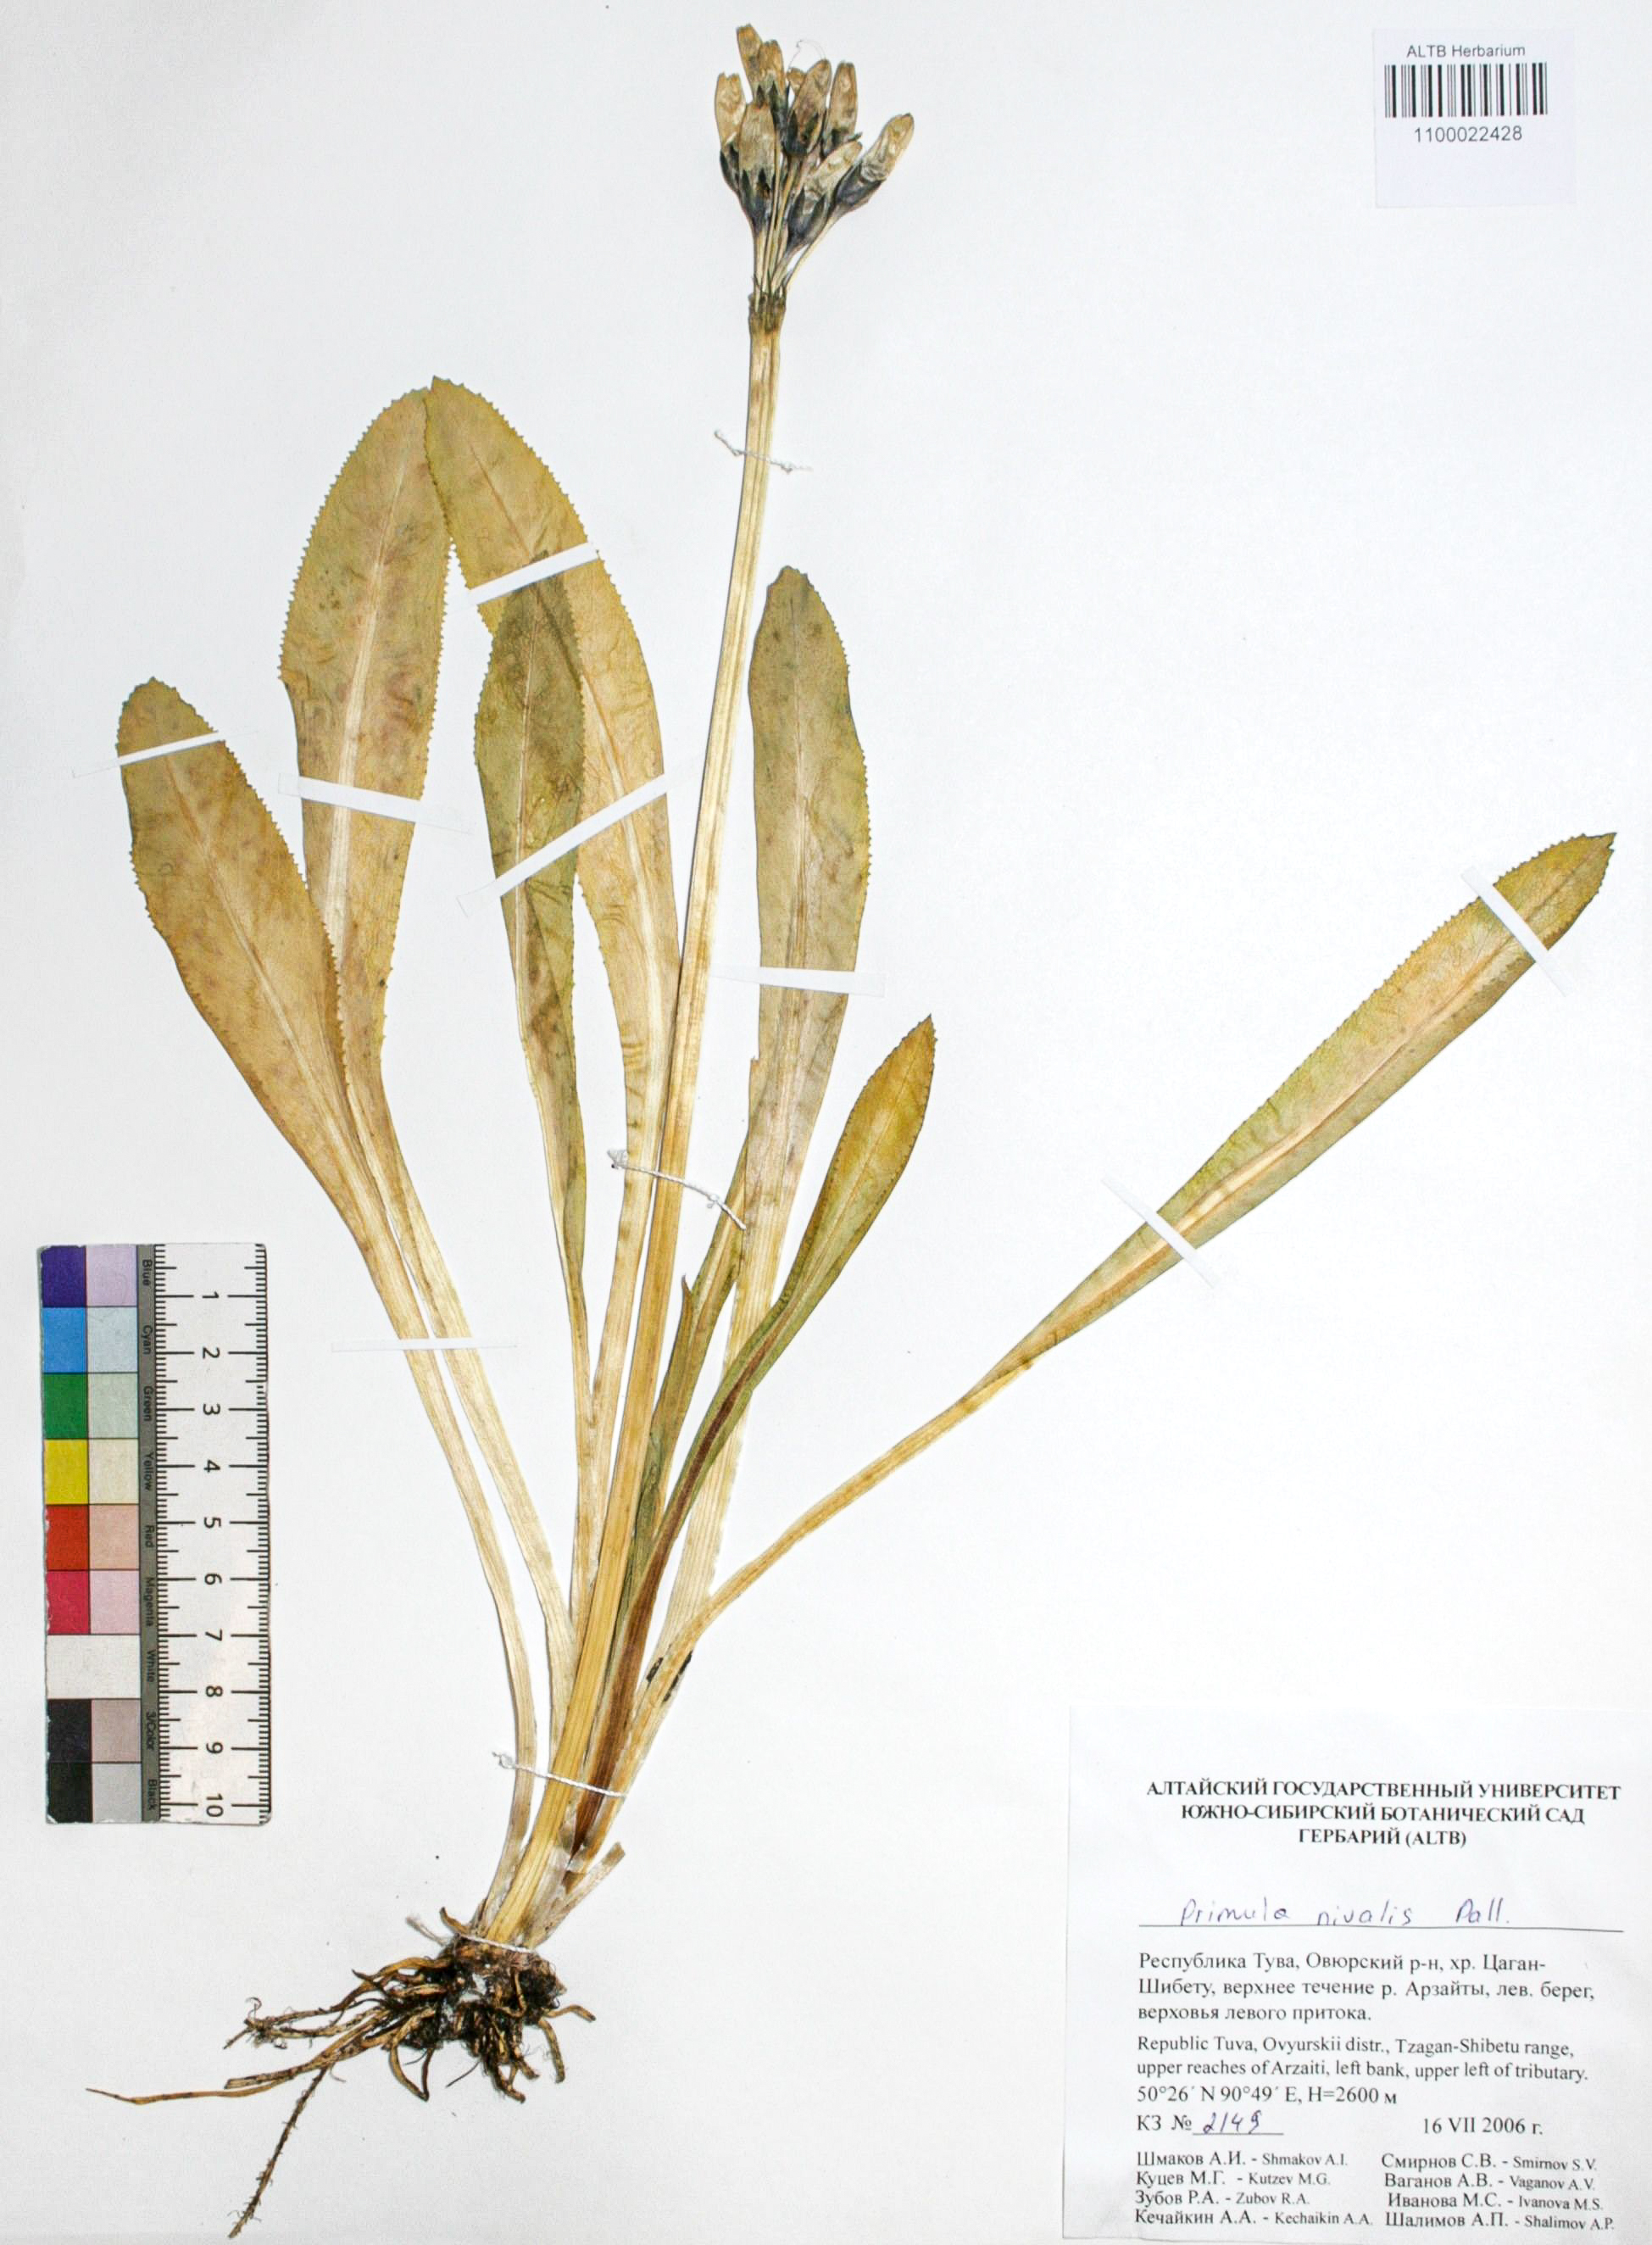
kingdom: Plantae
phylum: Tracheophyta
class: Magnoliopsida
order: Ericales
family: Primulaceae
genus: Primula
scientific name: Primula nivalis
